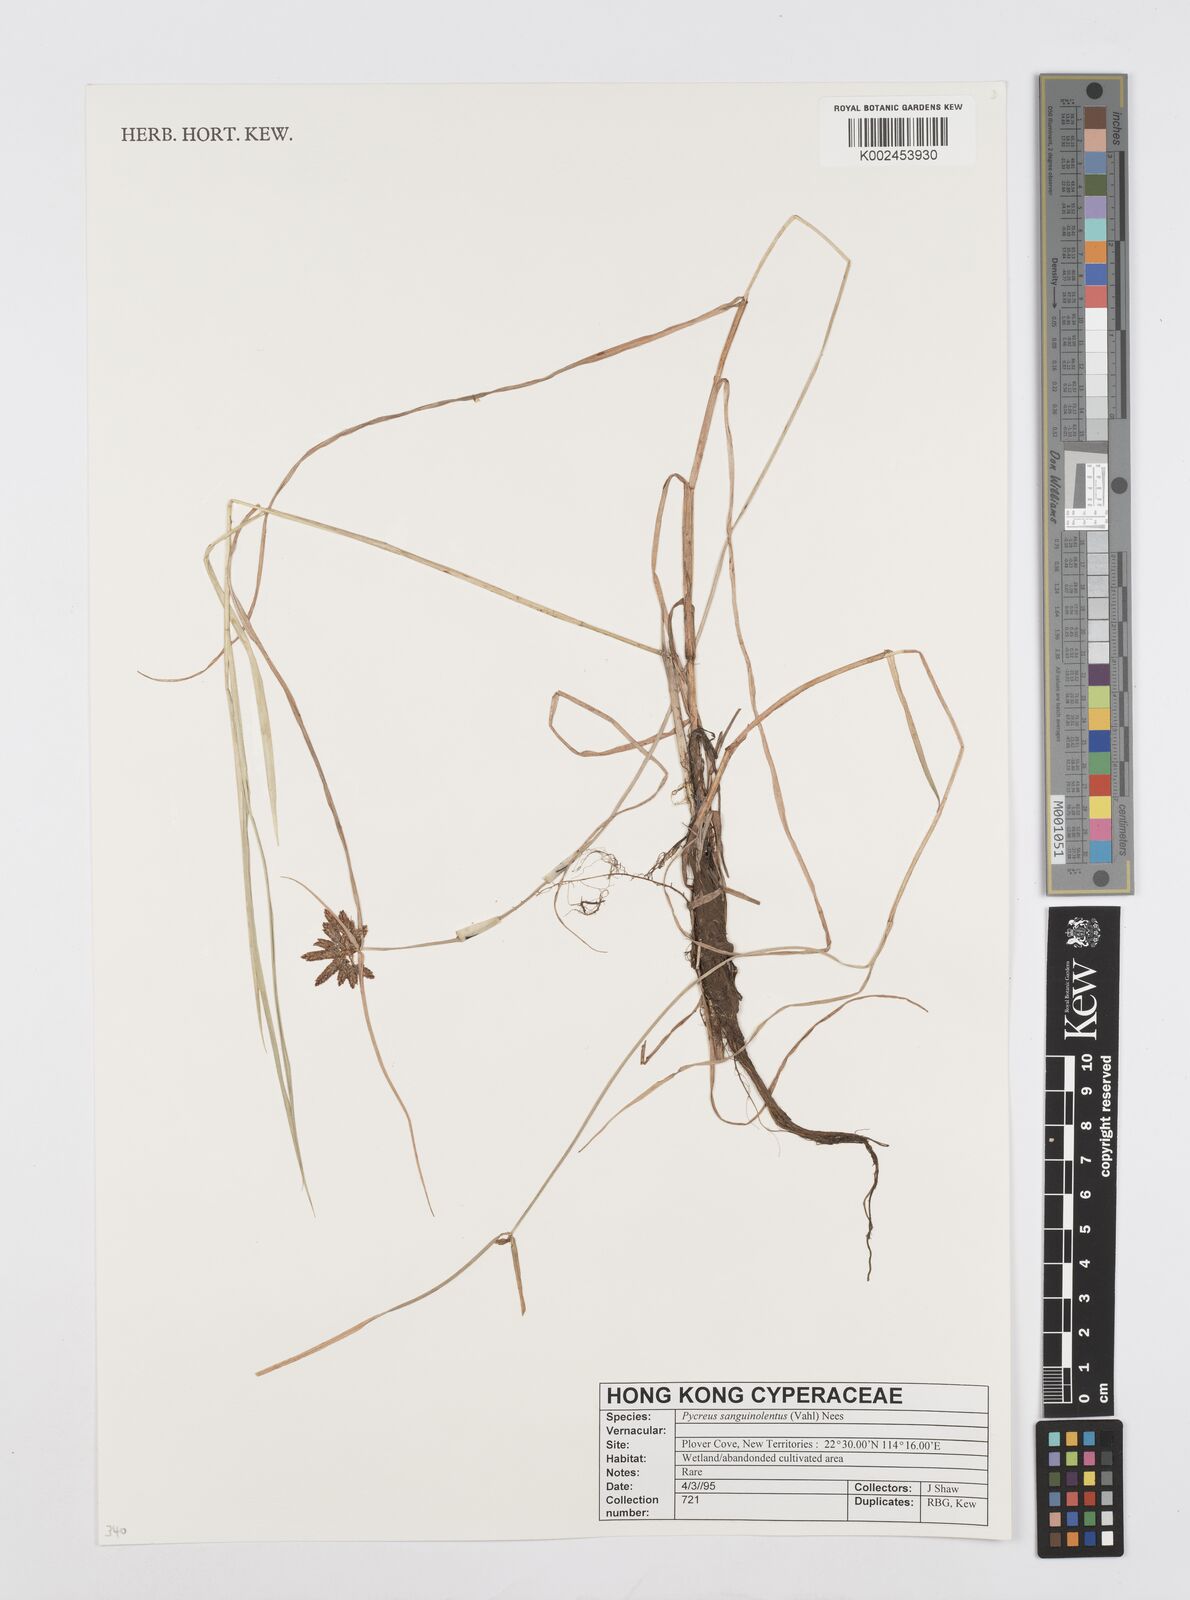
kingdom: Plantae
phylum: Tracheophyta
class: Liliopsida
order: Poales
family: Cyperaceae
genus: Cyperus
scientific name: Cyperus sanguinolentus
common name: Purpleglume flatsedge
